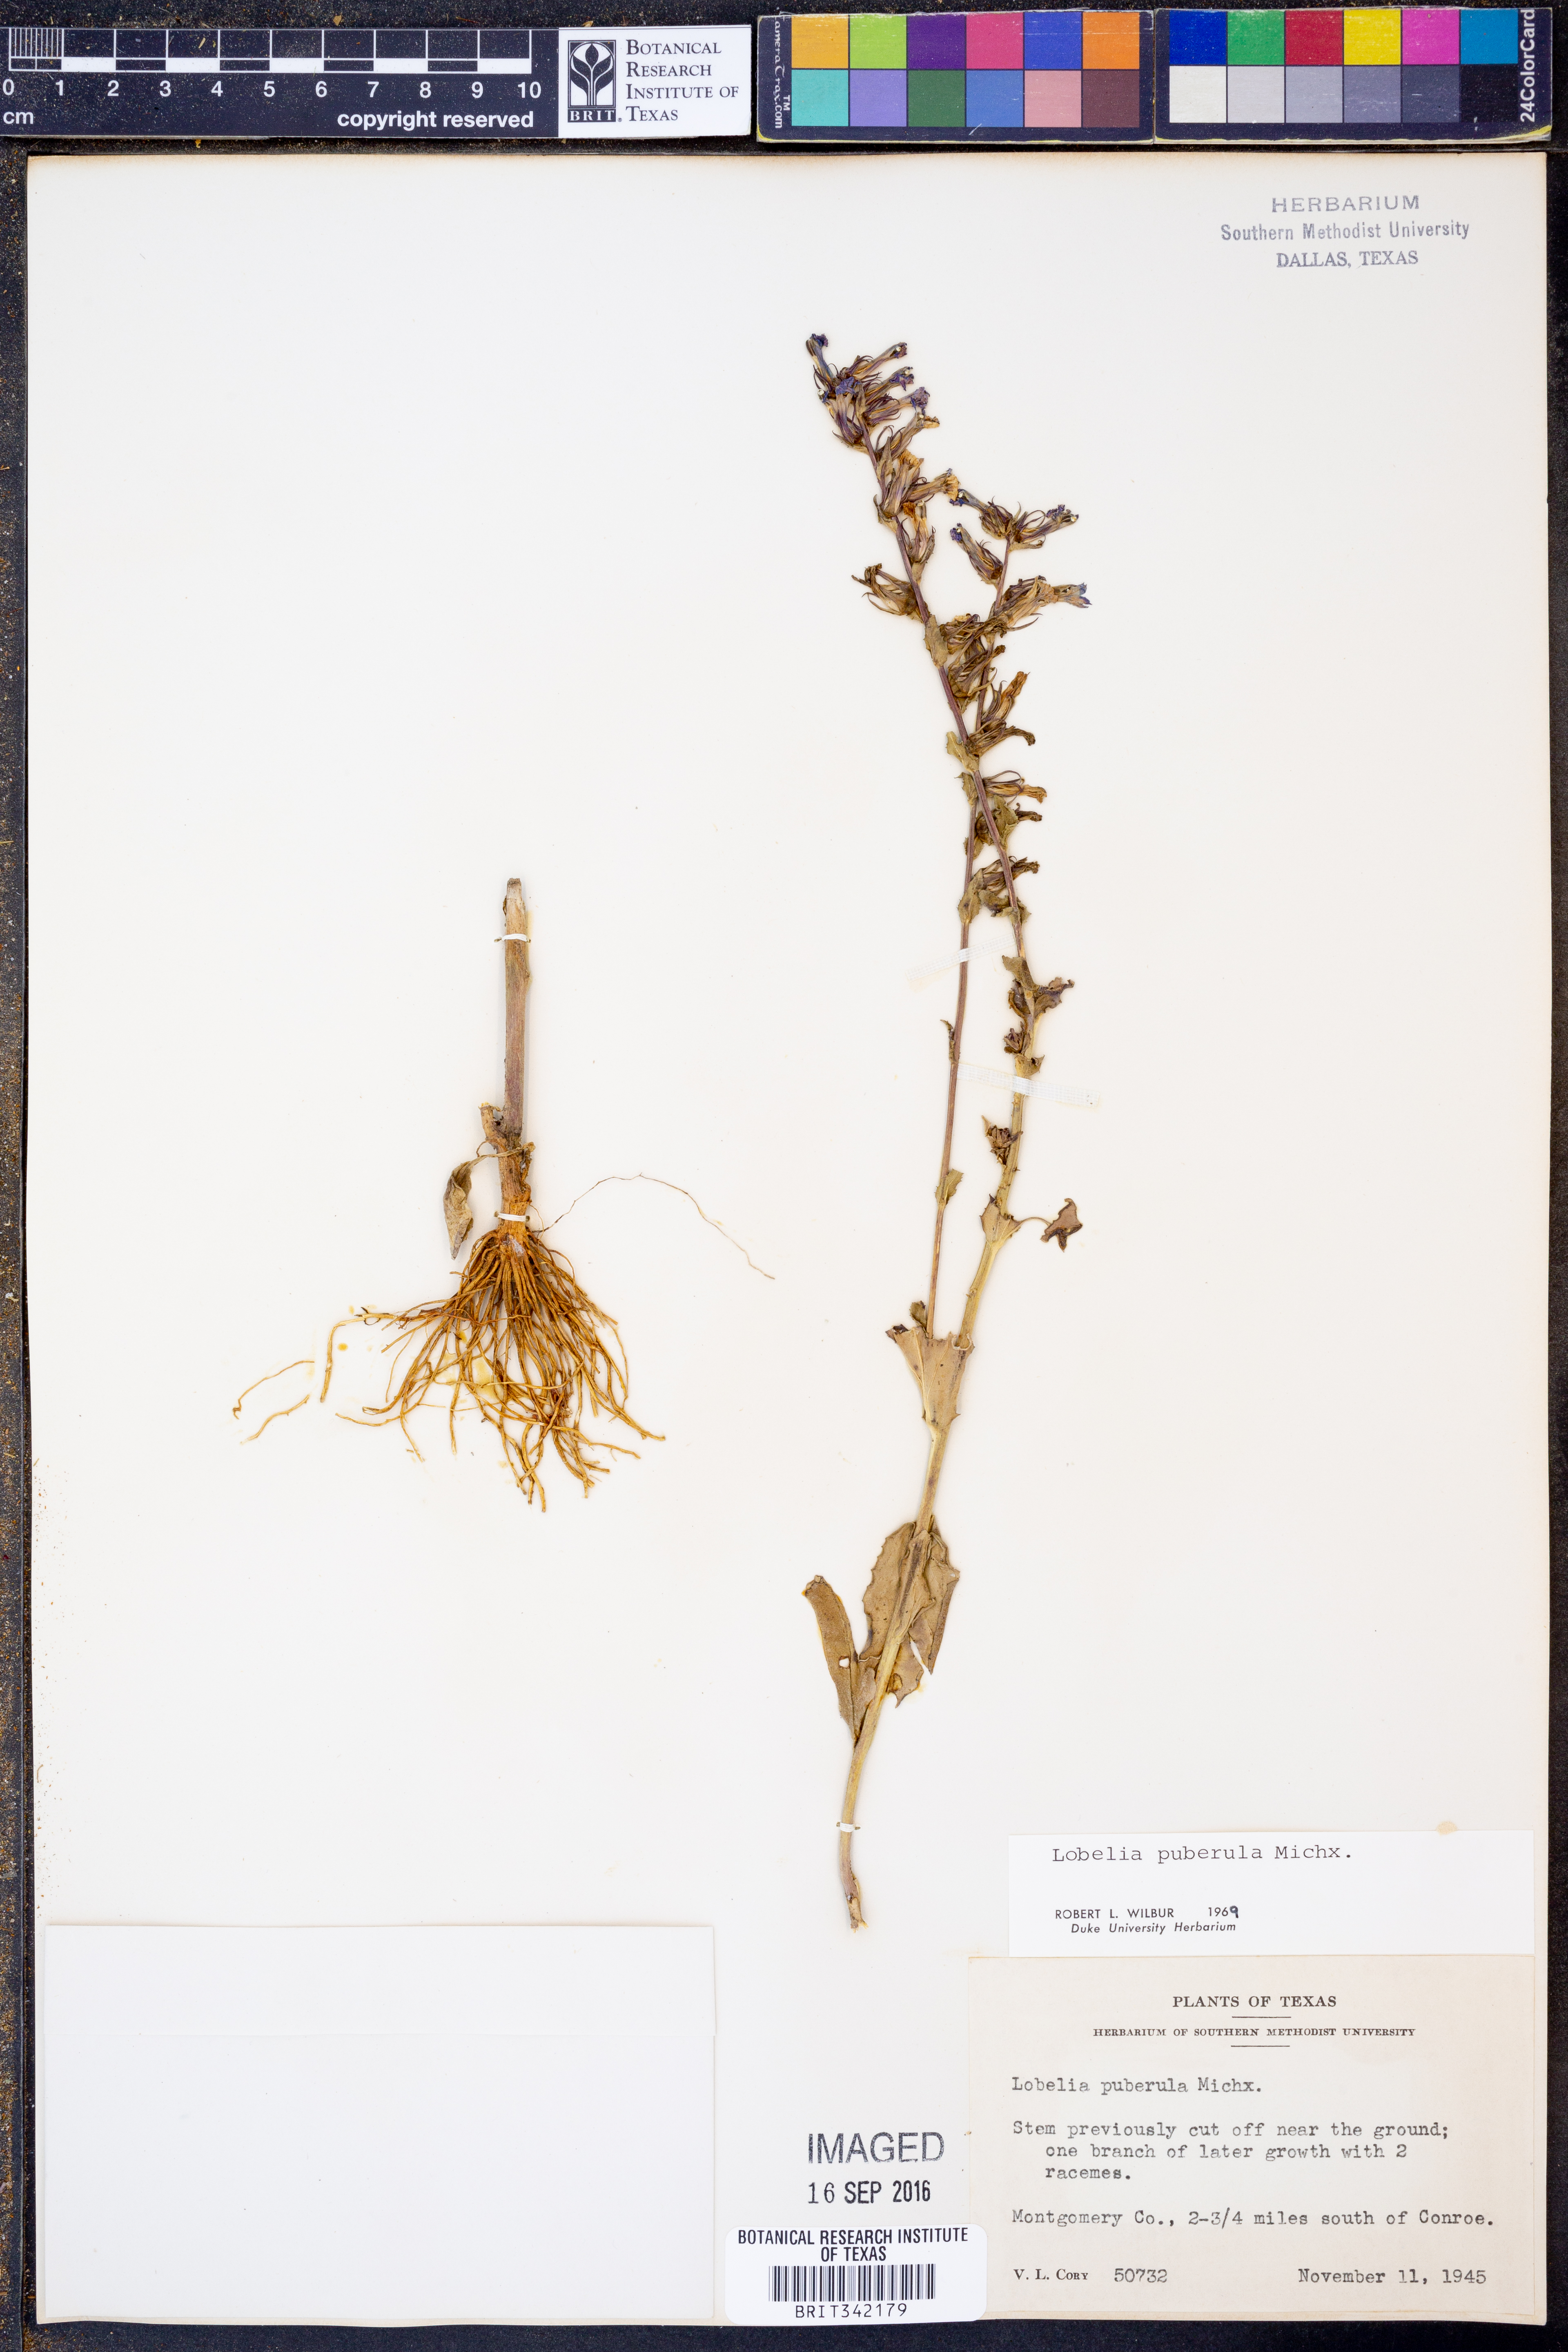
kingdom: Plantae
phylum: Tracheophyta
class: Magnoliopsida
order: Asterales
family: Campanulaceae
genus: Lobelia
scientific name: Lobelia puberula
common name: Purple dewdrop
